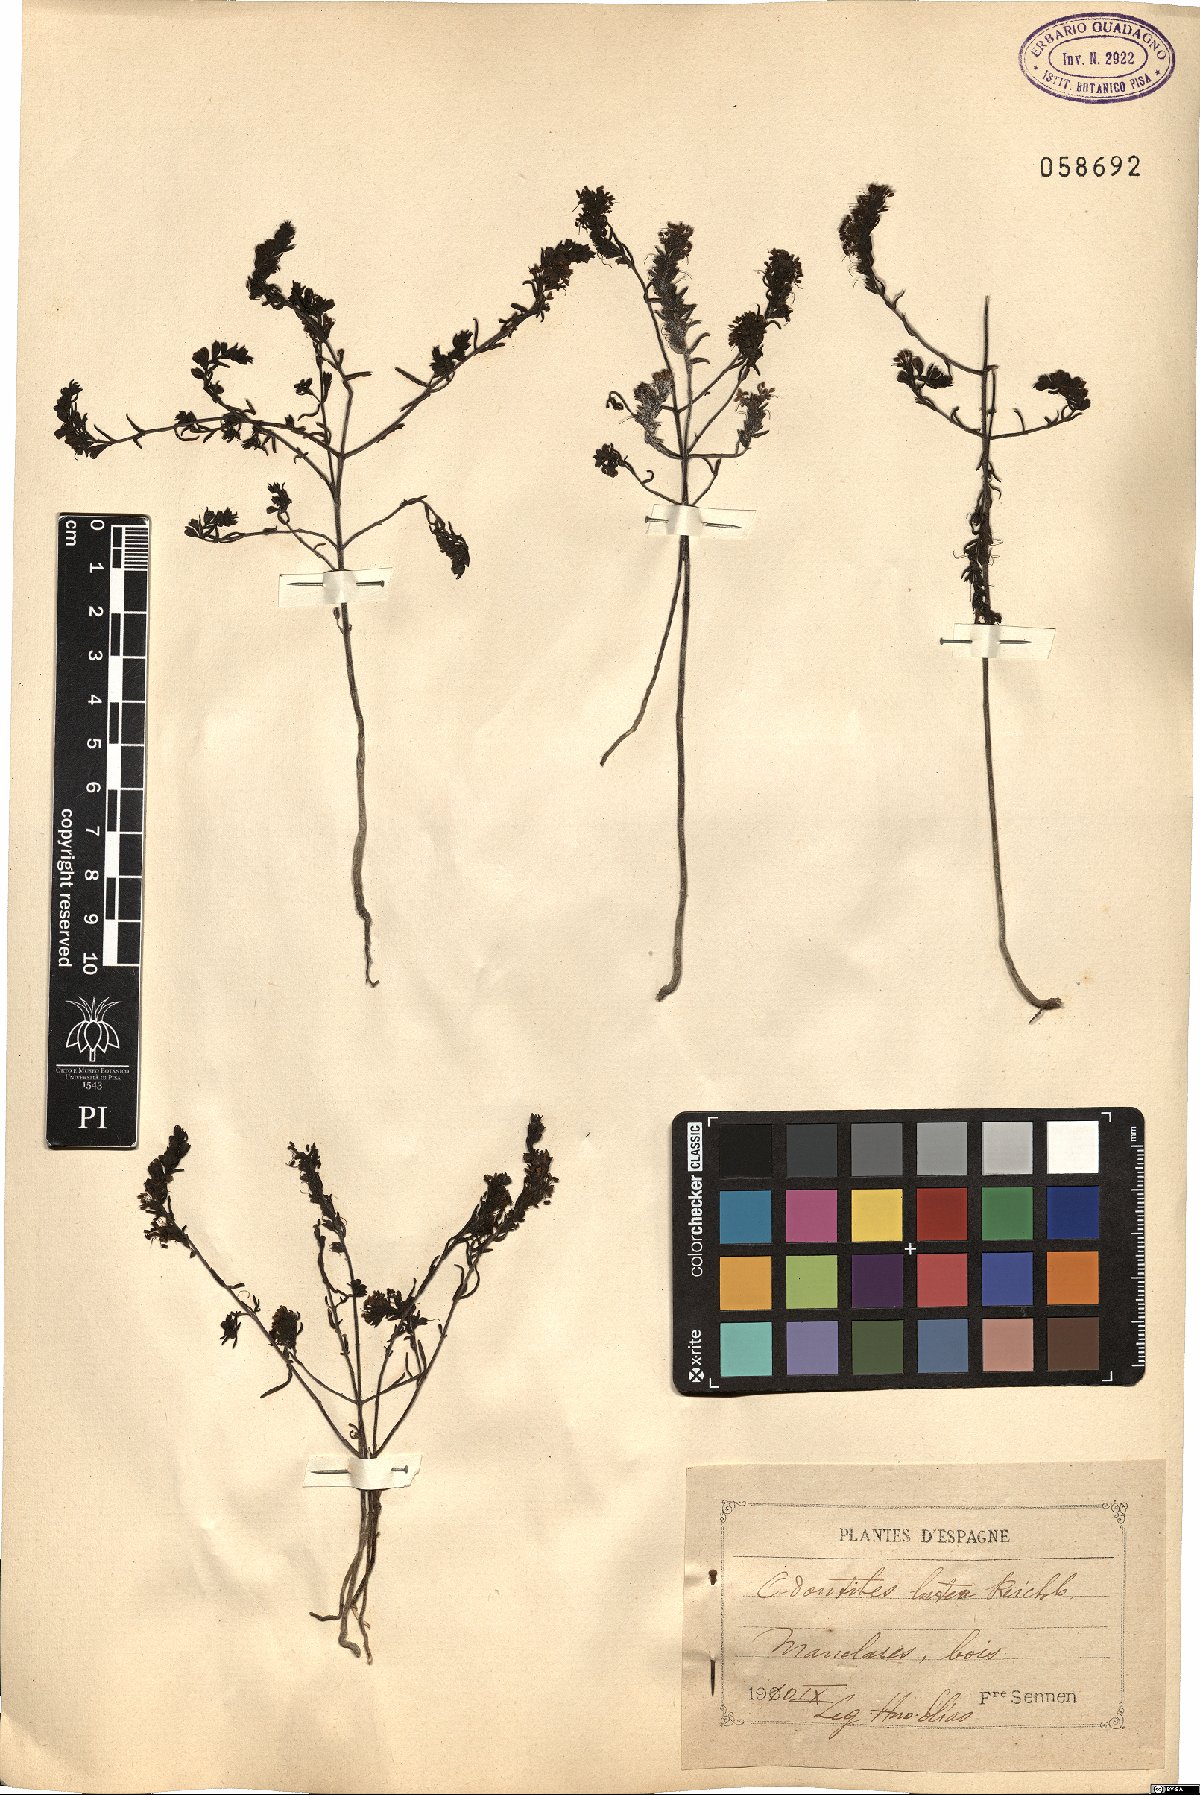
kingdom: Plantae
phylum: Tracheophyta
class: Magnoliopsida
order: Lamiales
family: Orobanchaceae
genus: Odontites
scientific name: Odontites luteus
